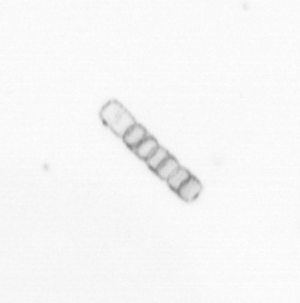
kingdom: Chromista
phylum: Ochrophyta
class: Bacillariophyceae
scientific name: Bacillariophyceae
